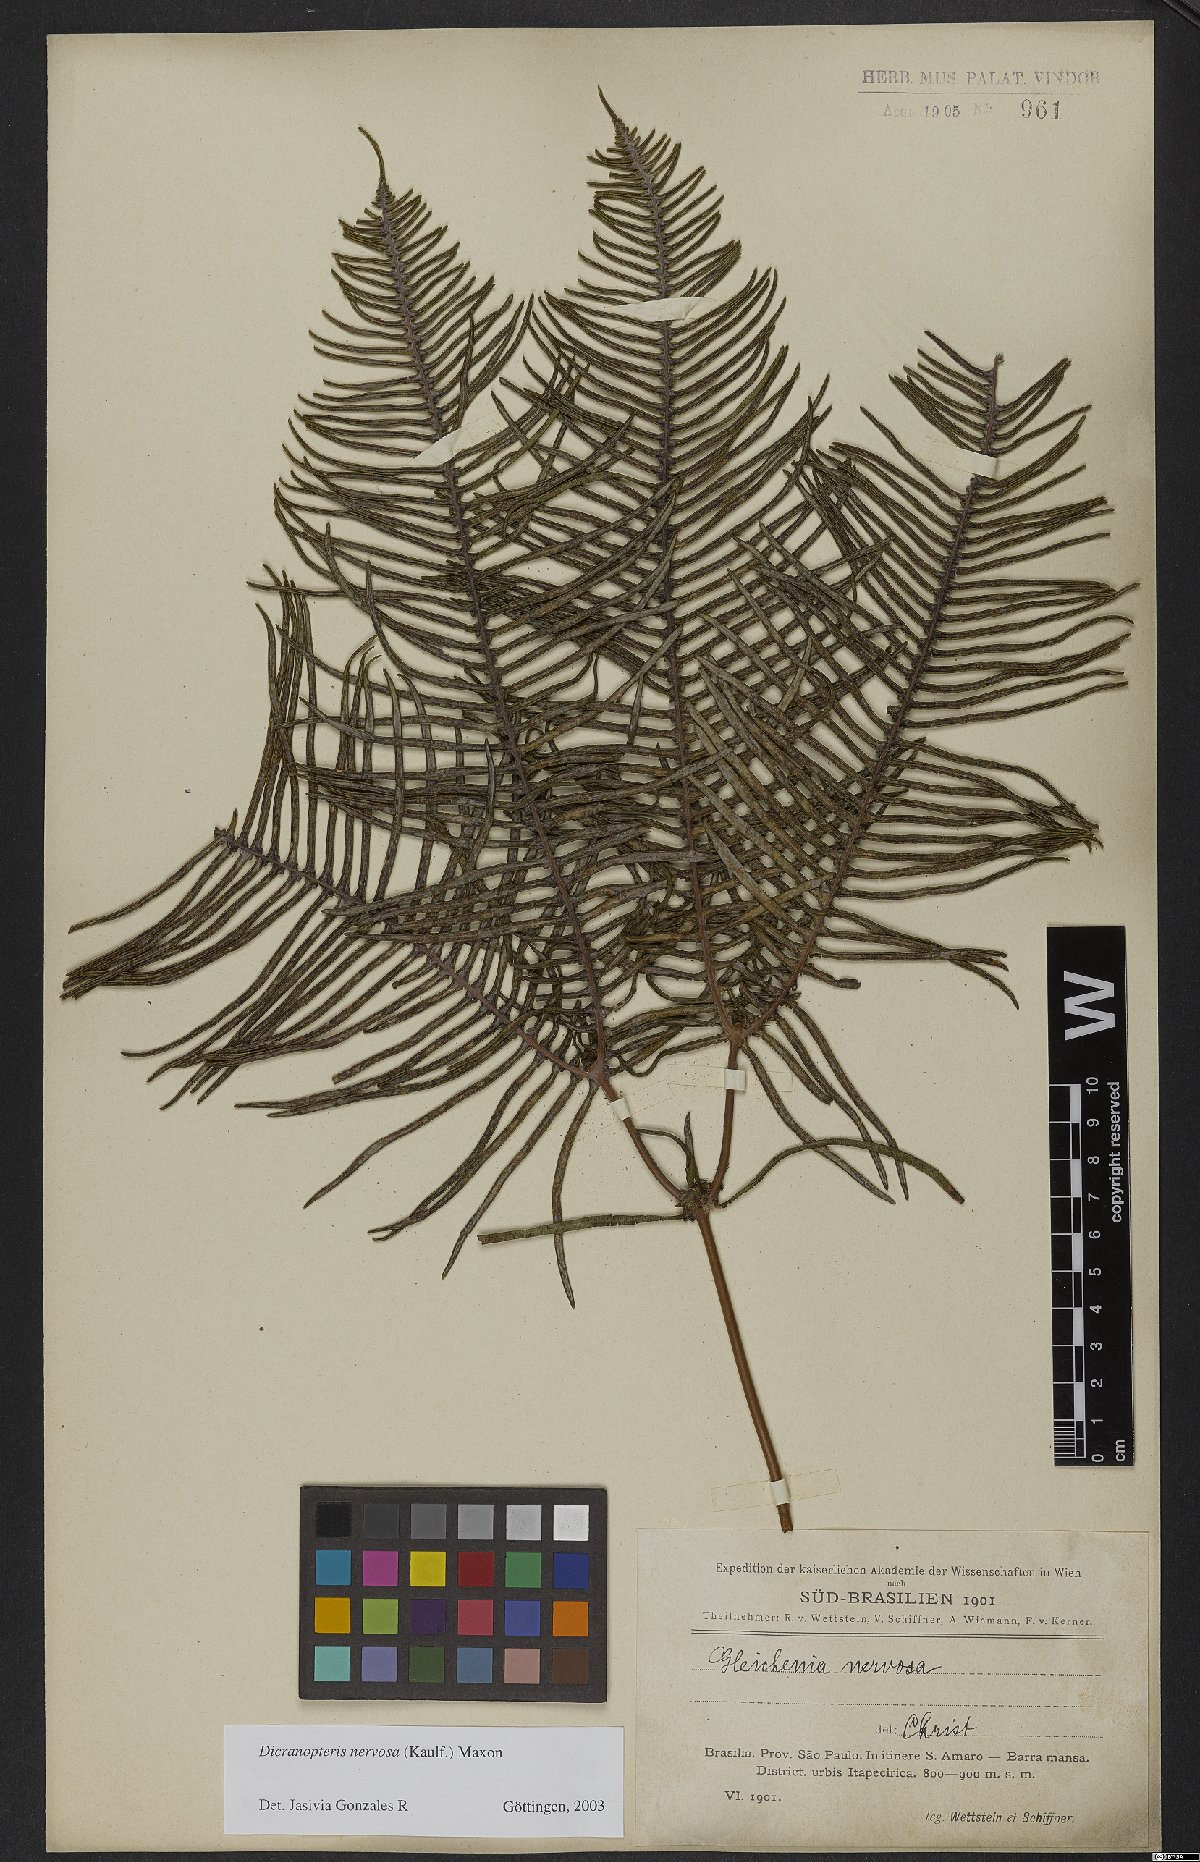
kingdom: Plantae
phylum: Tracheophyta
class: Polypodiopsida
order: Gleicheniales
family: Gleicheniaceae
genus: Dicranopteris
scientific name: Dicranopteris nervosa
